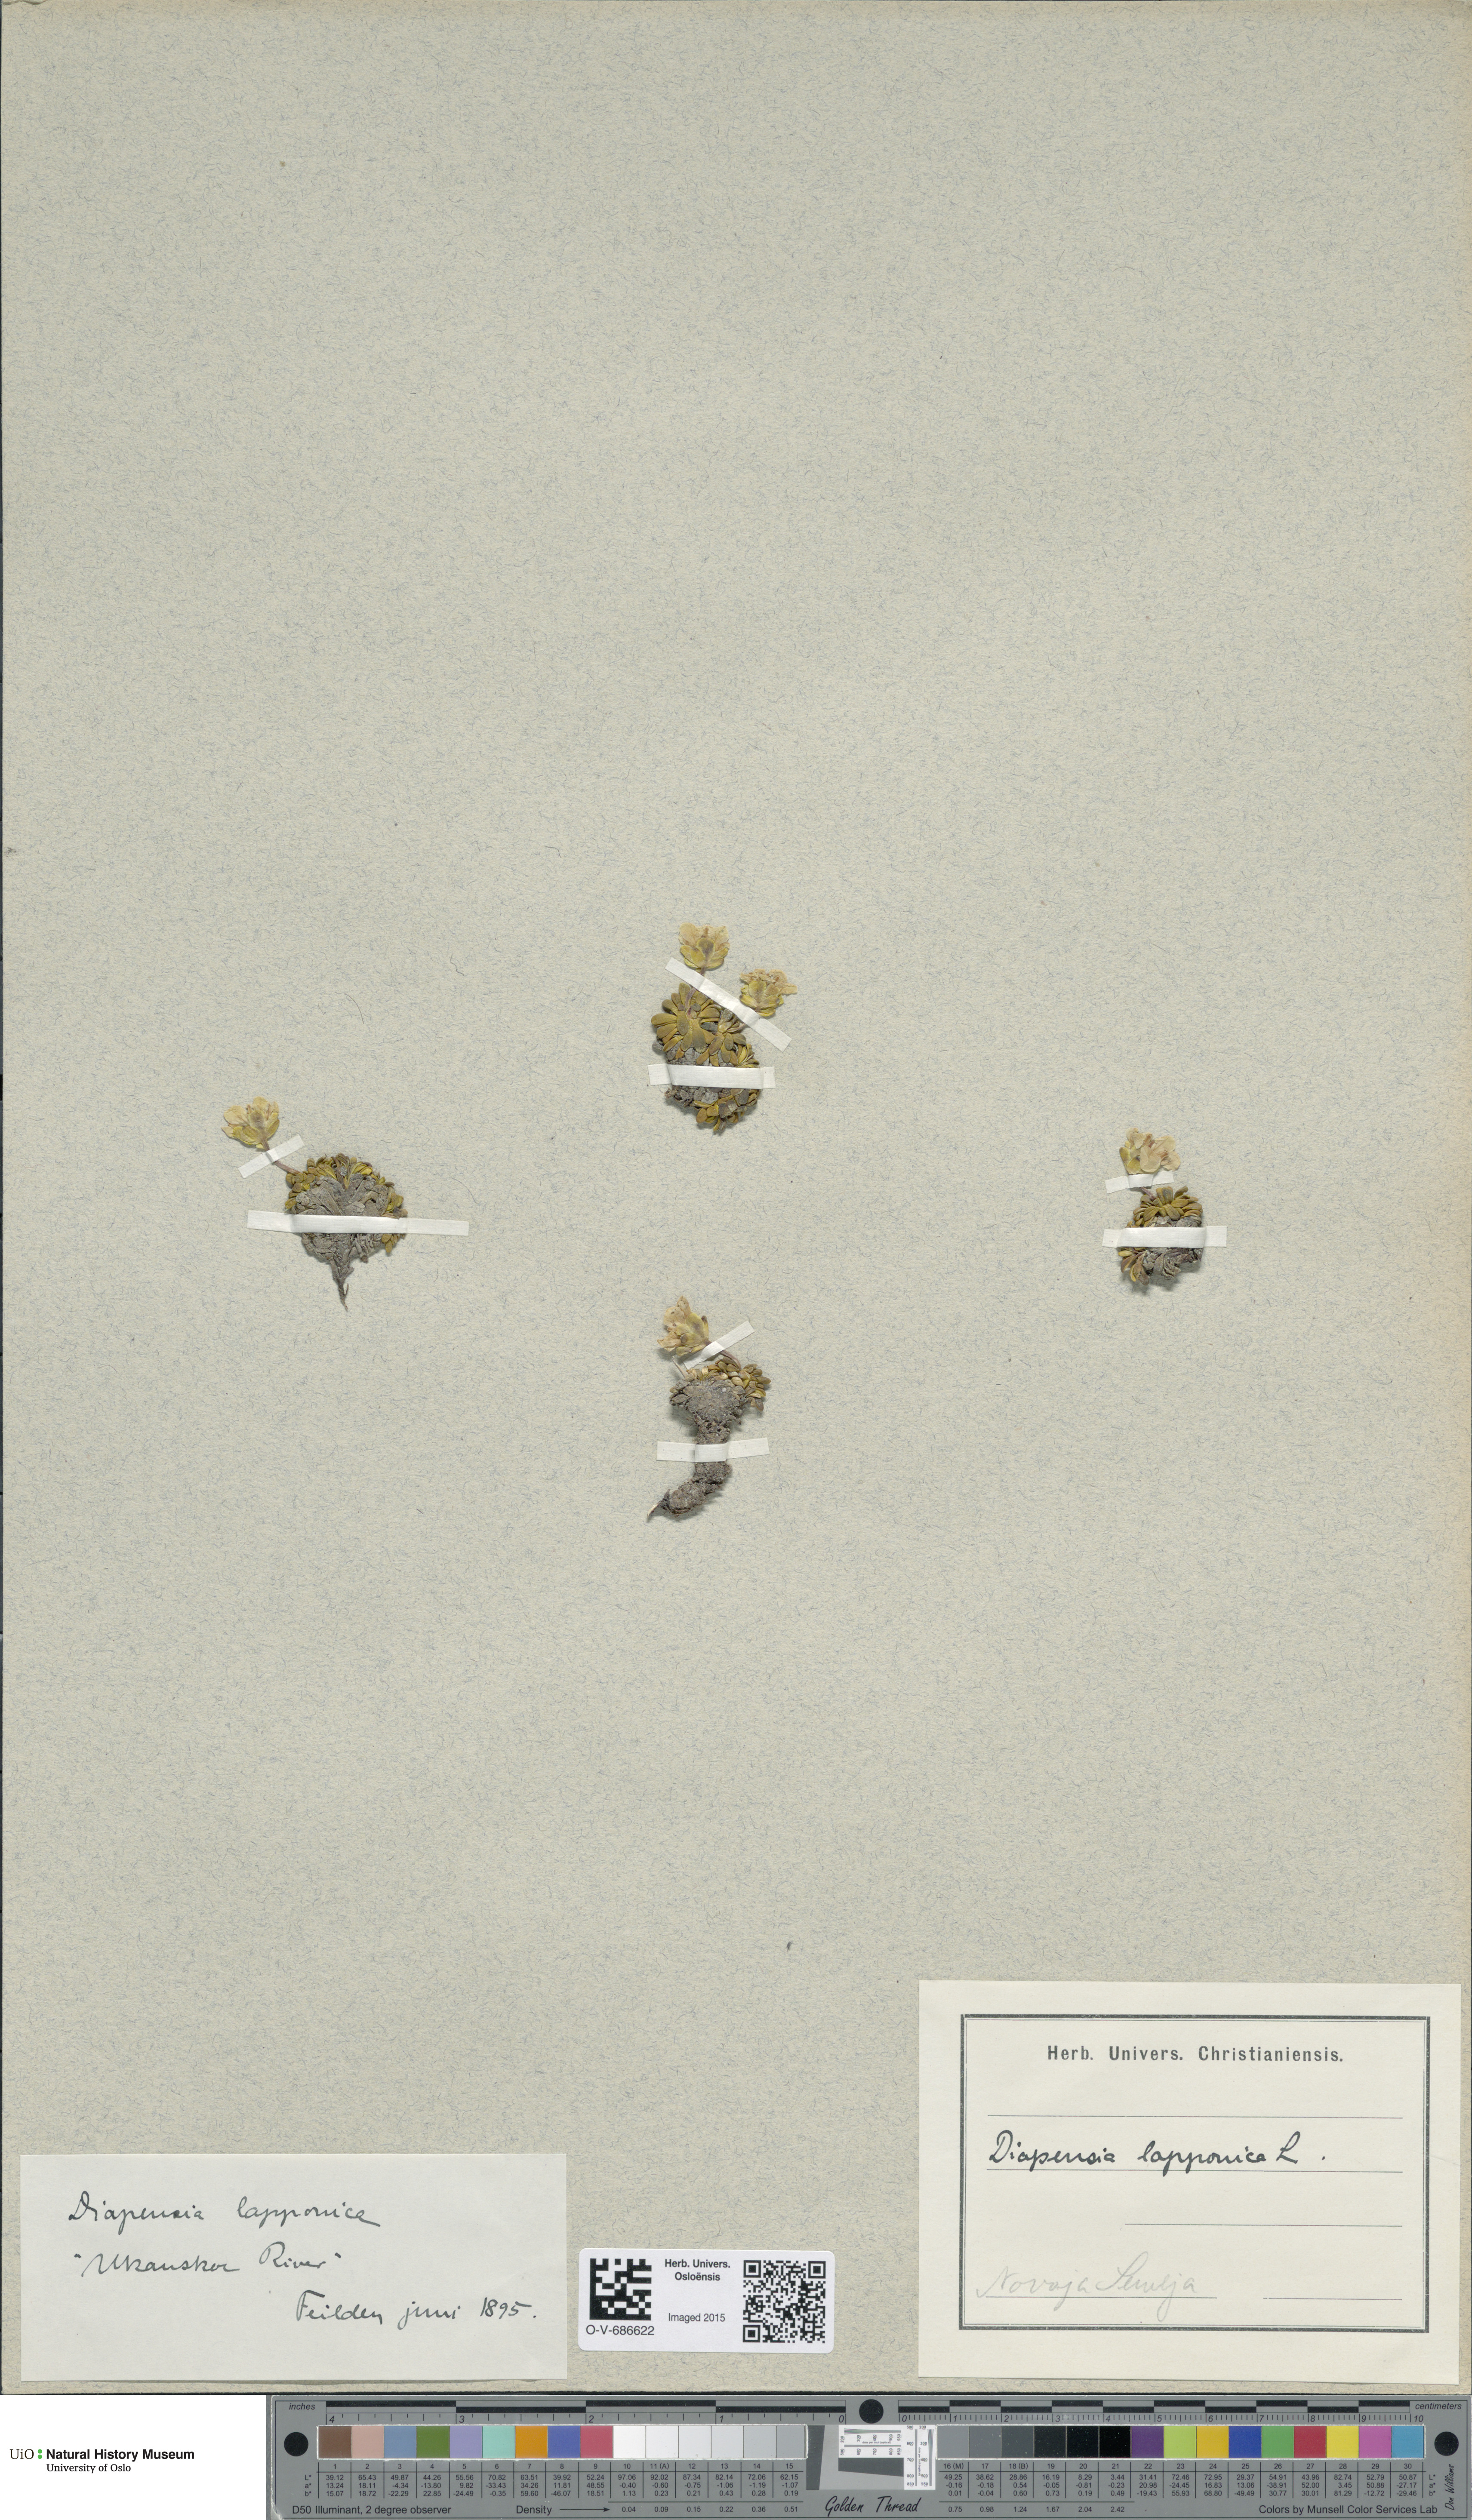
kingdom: Plantae
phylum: Tracheophyta
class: Magnoliopsida
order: Ericales
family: Diapensiaceae
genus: Diapensia
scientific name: Diapensia lapponica
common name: Diapensia
